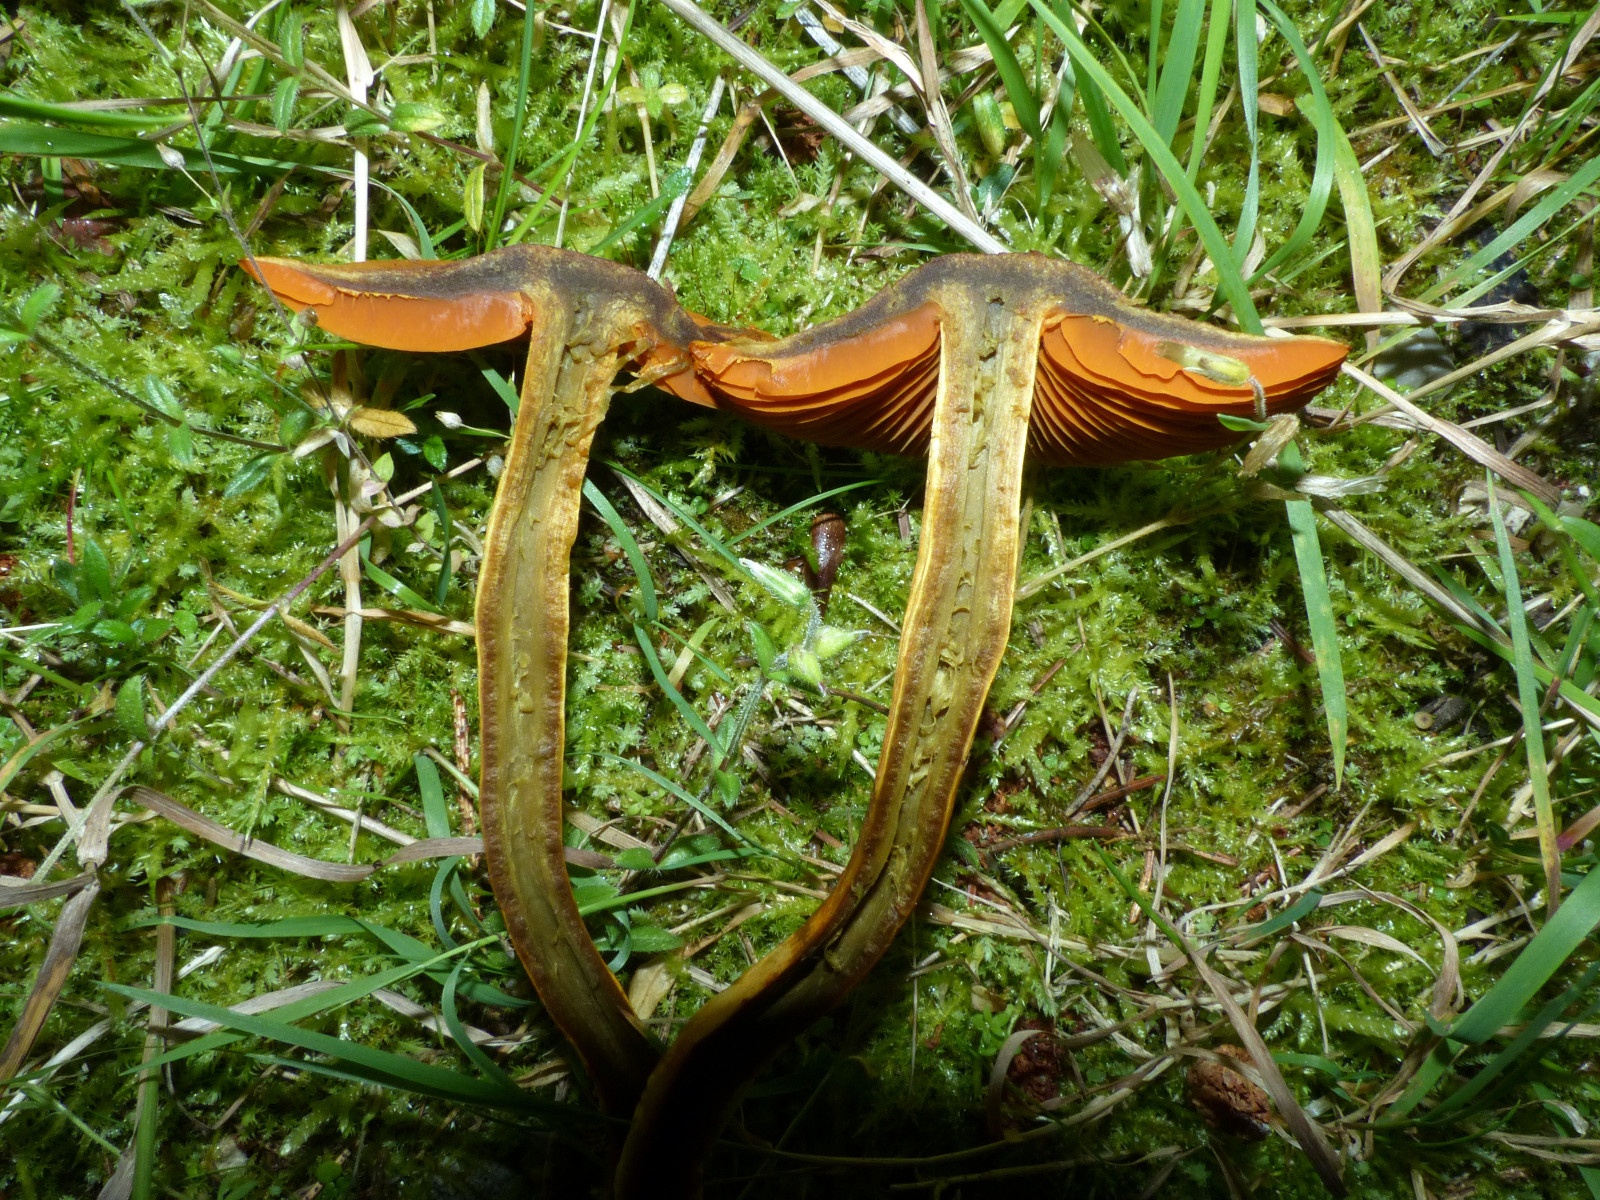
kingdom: Fungi
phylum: Basidiomycota
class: Agaricomycetes
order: Agaricales
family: Cortinariaceae
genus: Cortinarius
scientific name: Cortinarius malicorius
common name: grønkødet slørhat
